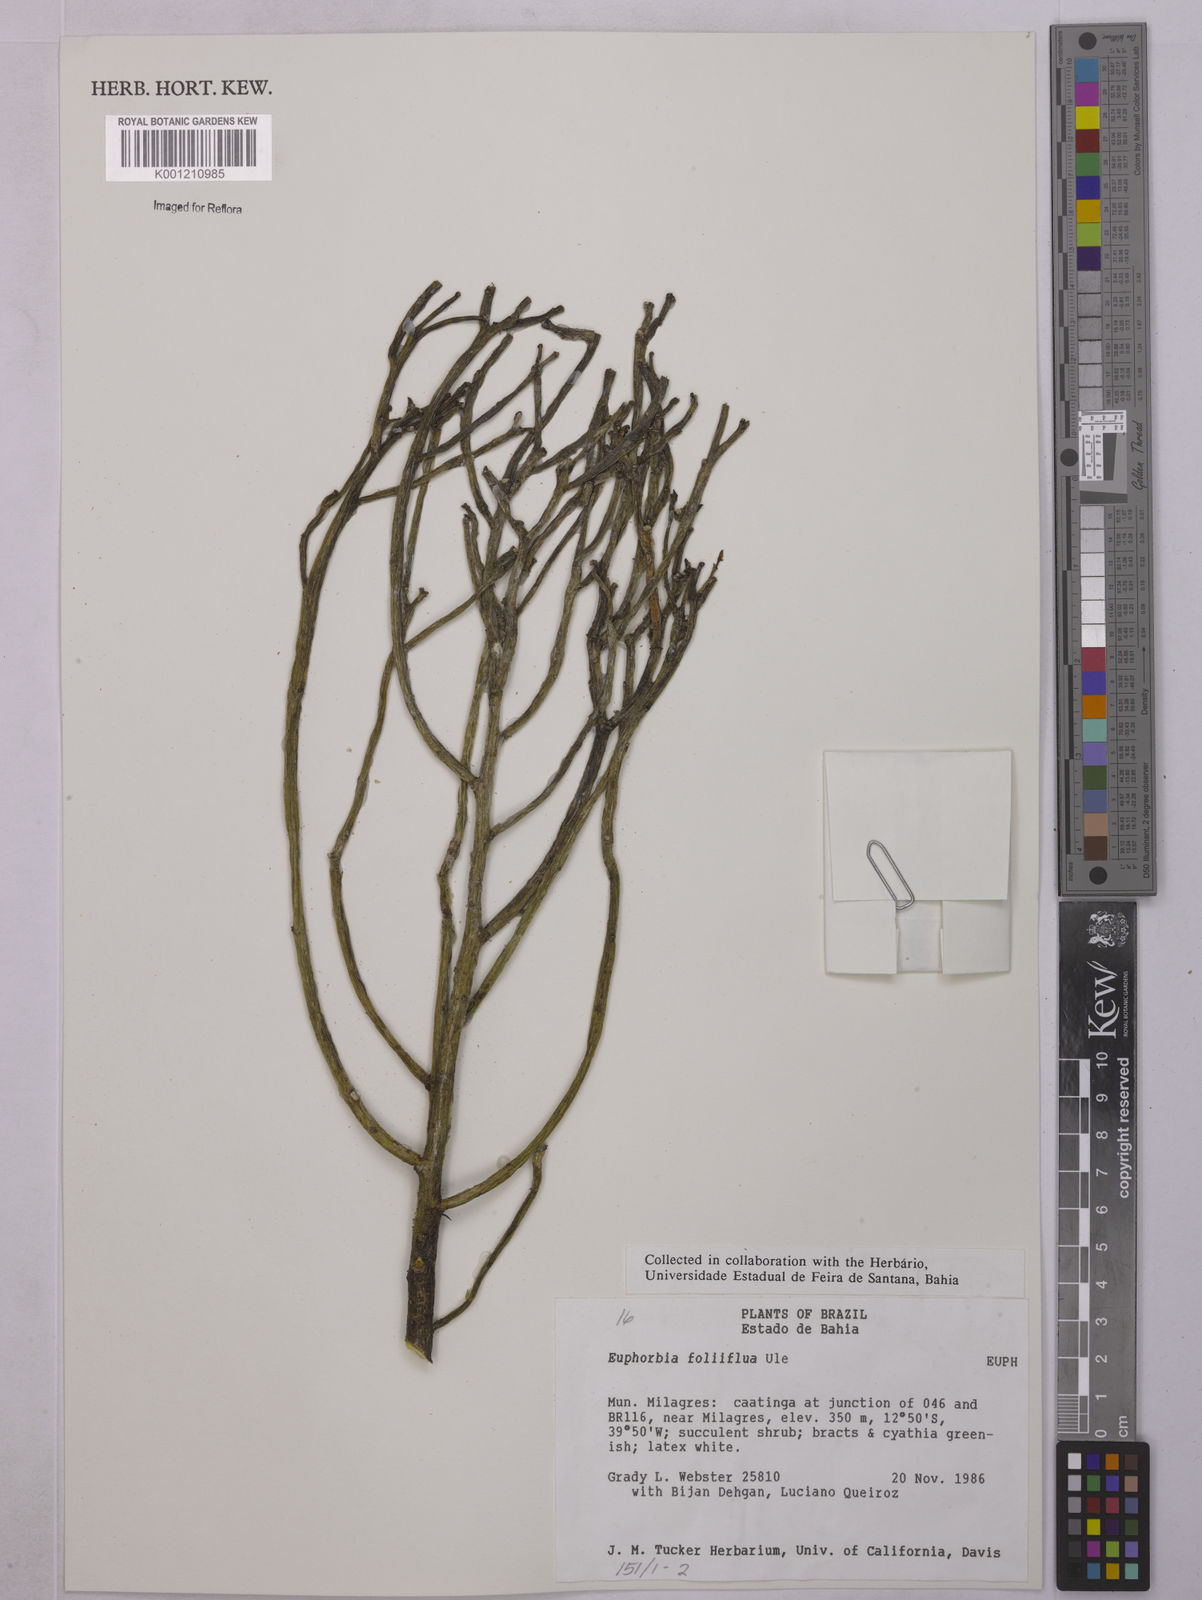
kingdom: Plantae
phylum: Tracheophyta
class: Magnoliopsida
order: Malpighiales
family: Euphorbiaceae
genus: Euphorbia
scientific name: Euphorbia
